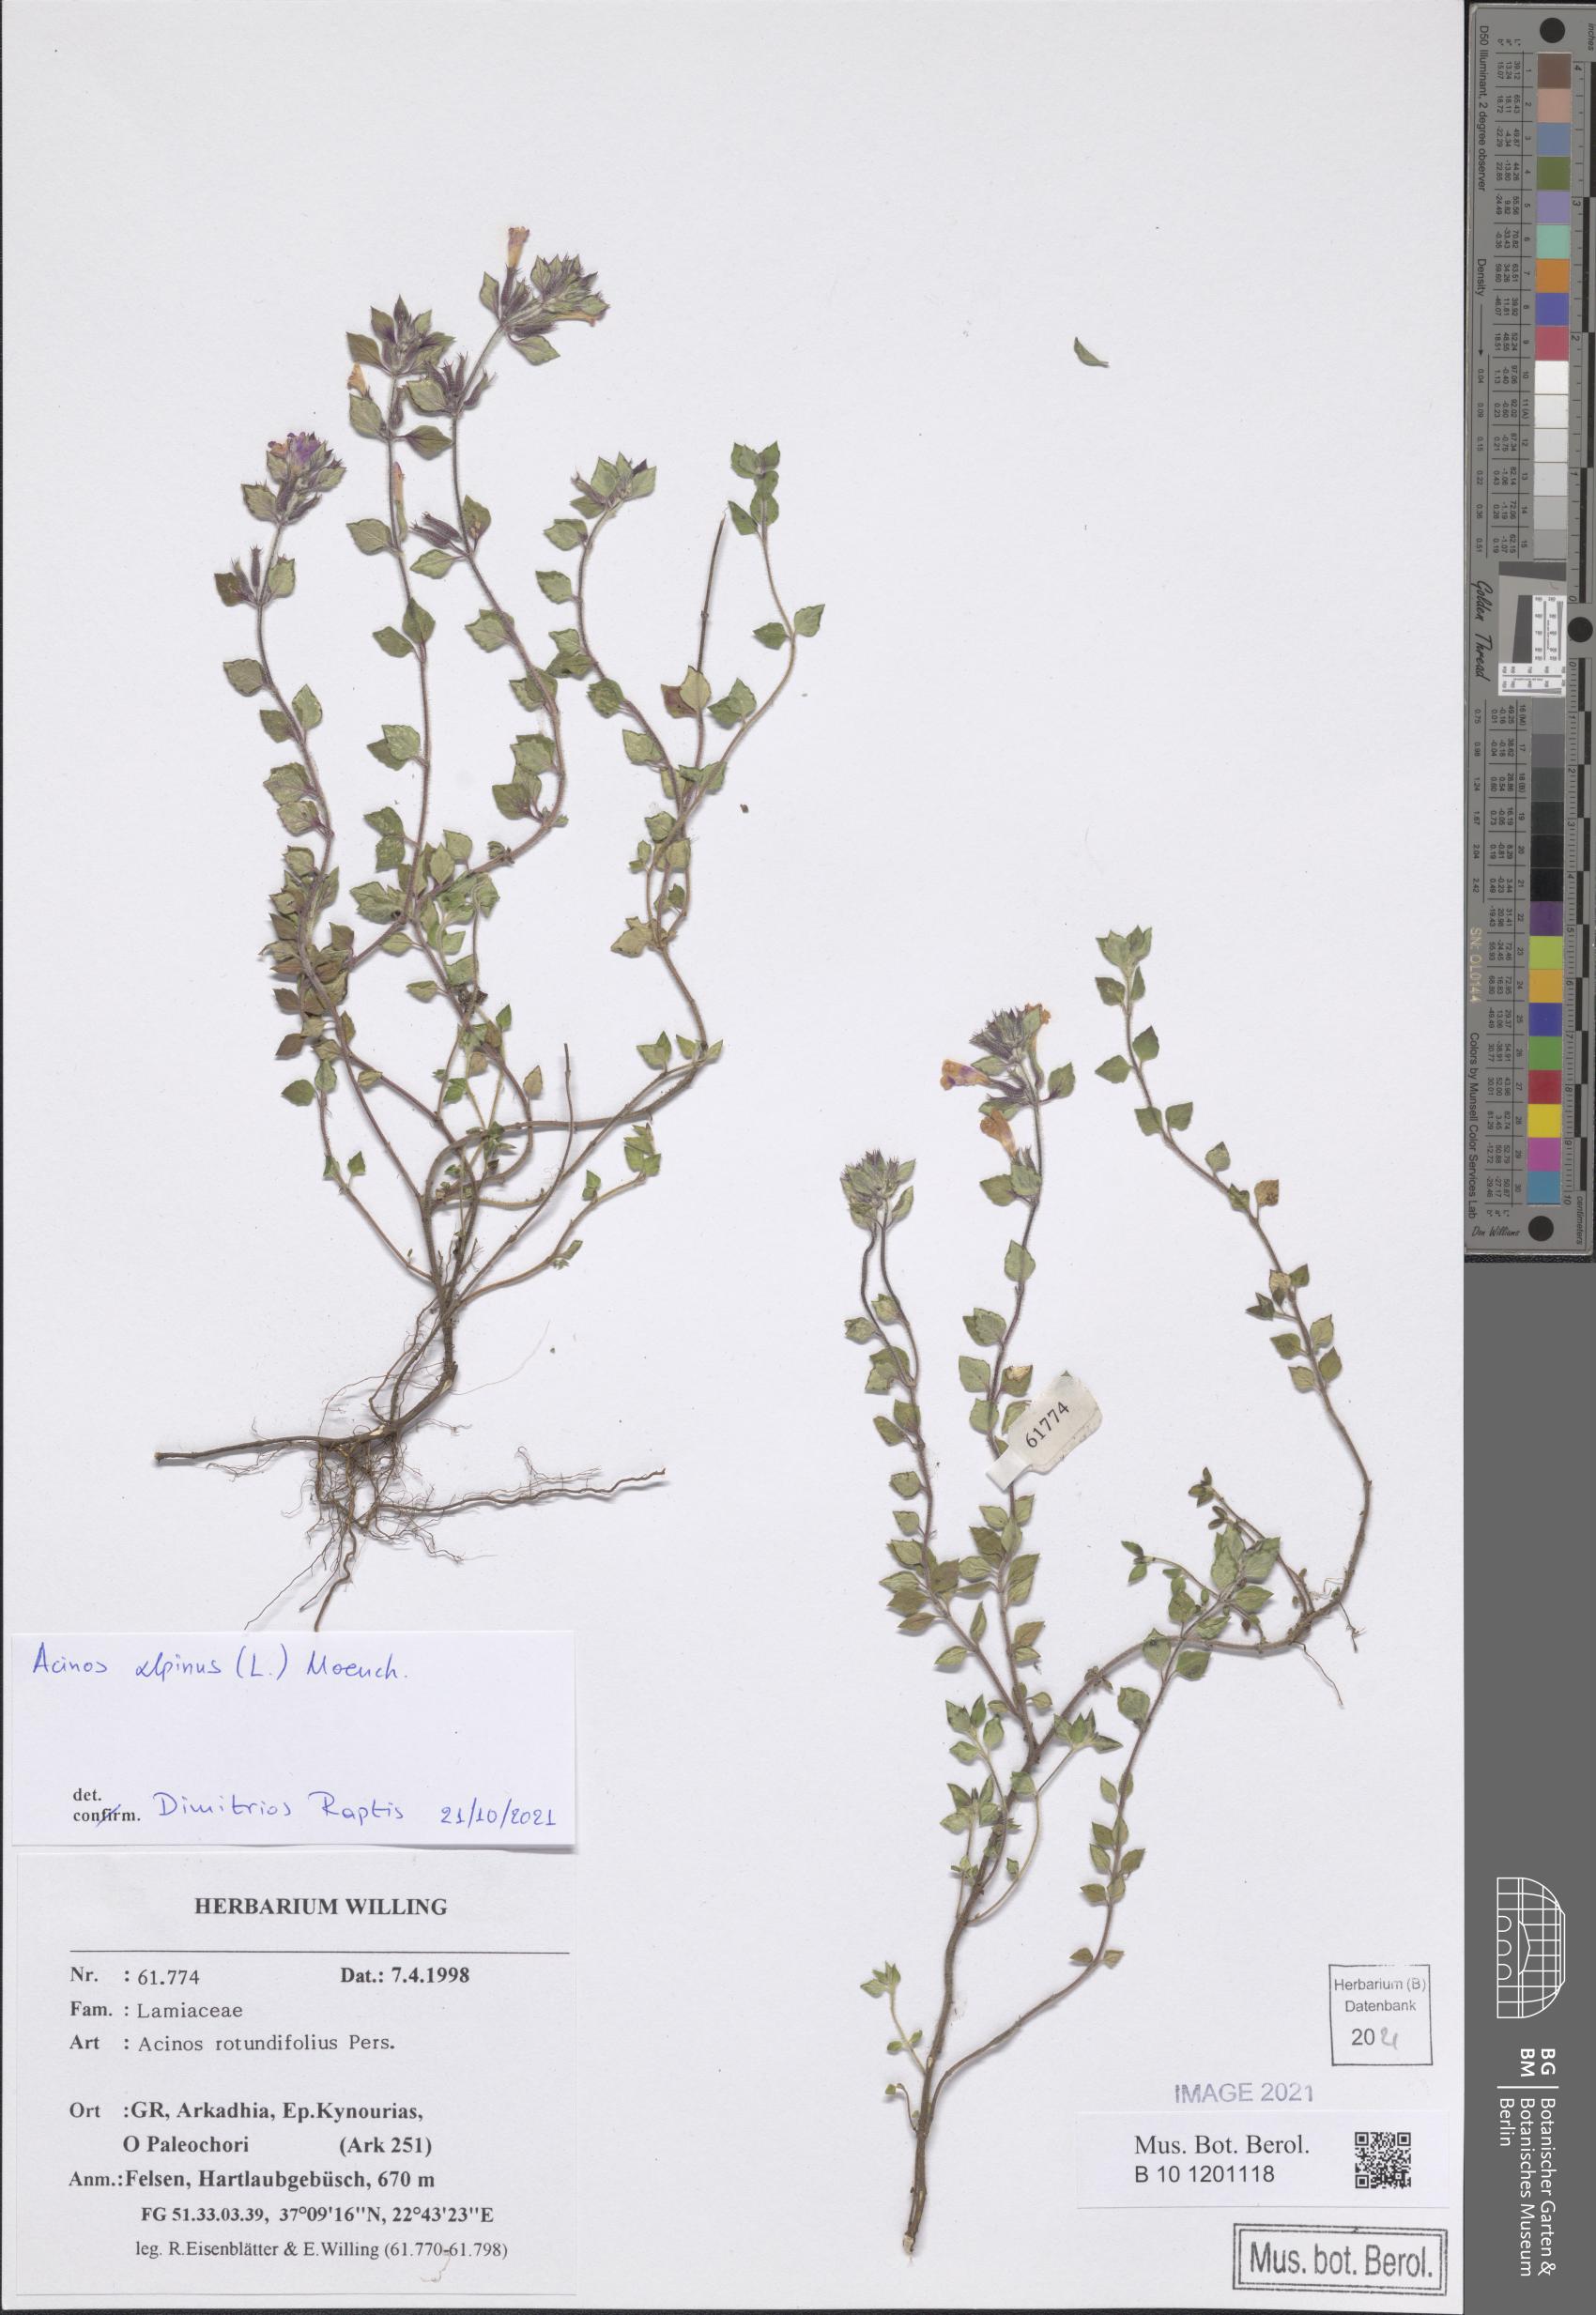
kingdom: Plantae
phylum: Tracheophyta
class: Magnoliopsida
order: Lamiales
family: Lamiaceae
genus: Clinopodium
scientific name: Clinopodium alpinum
